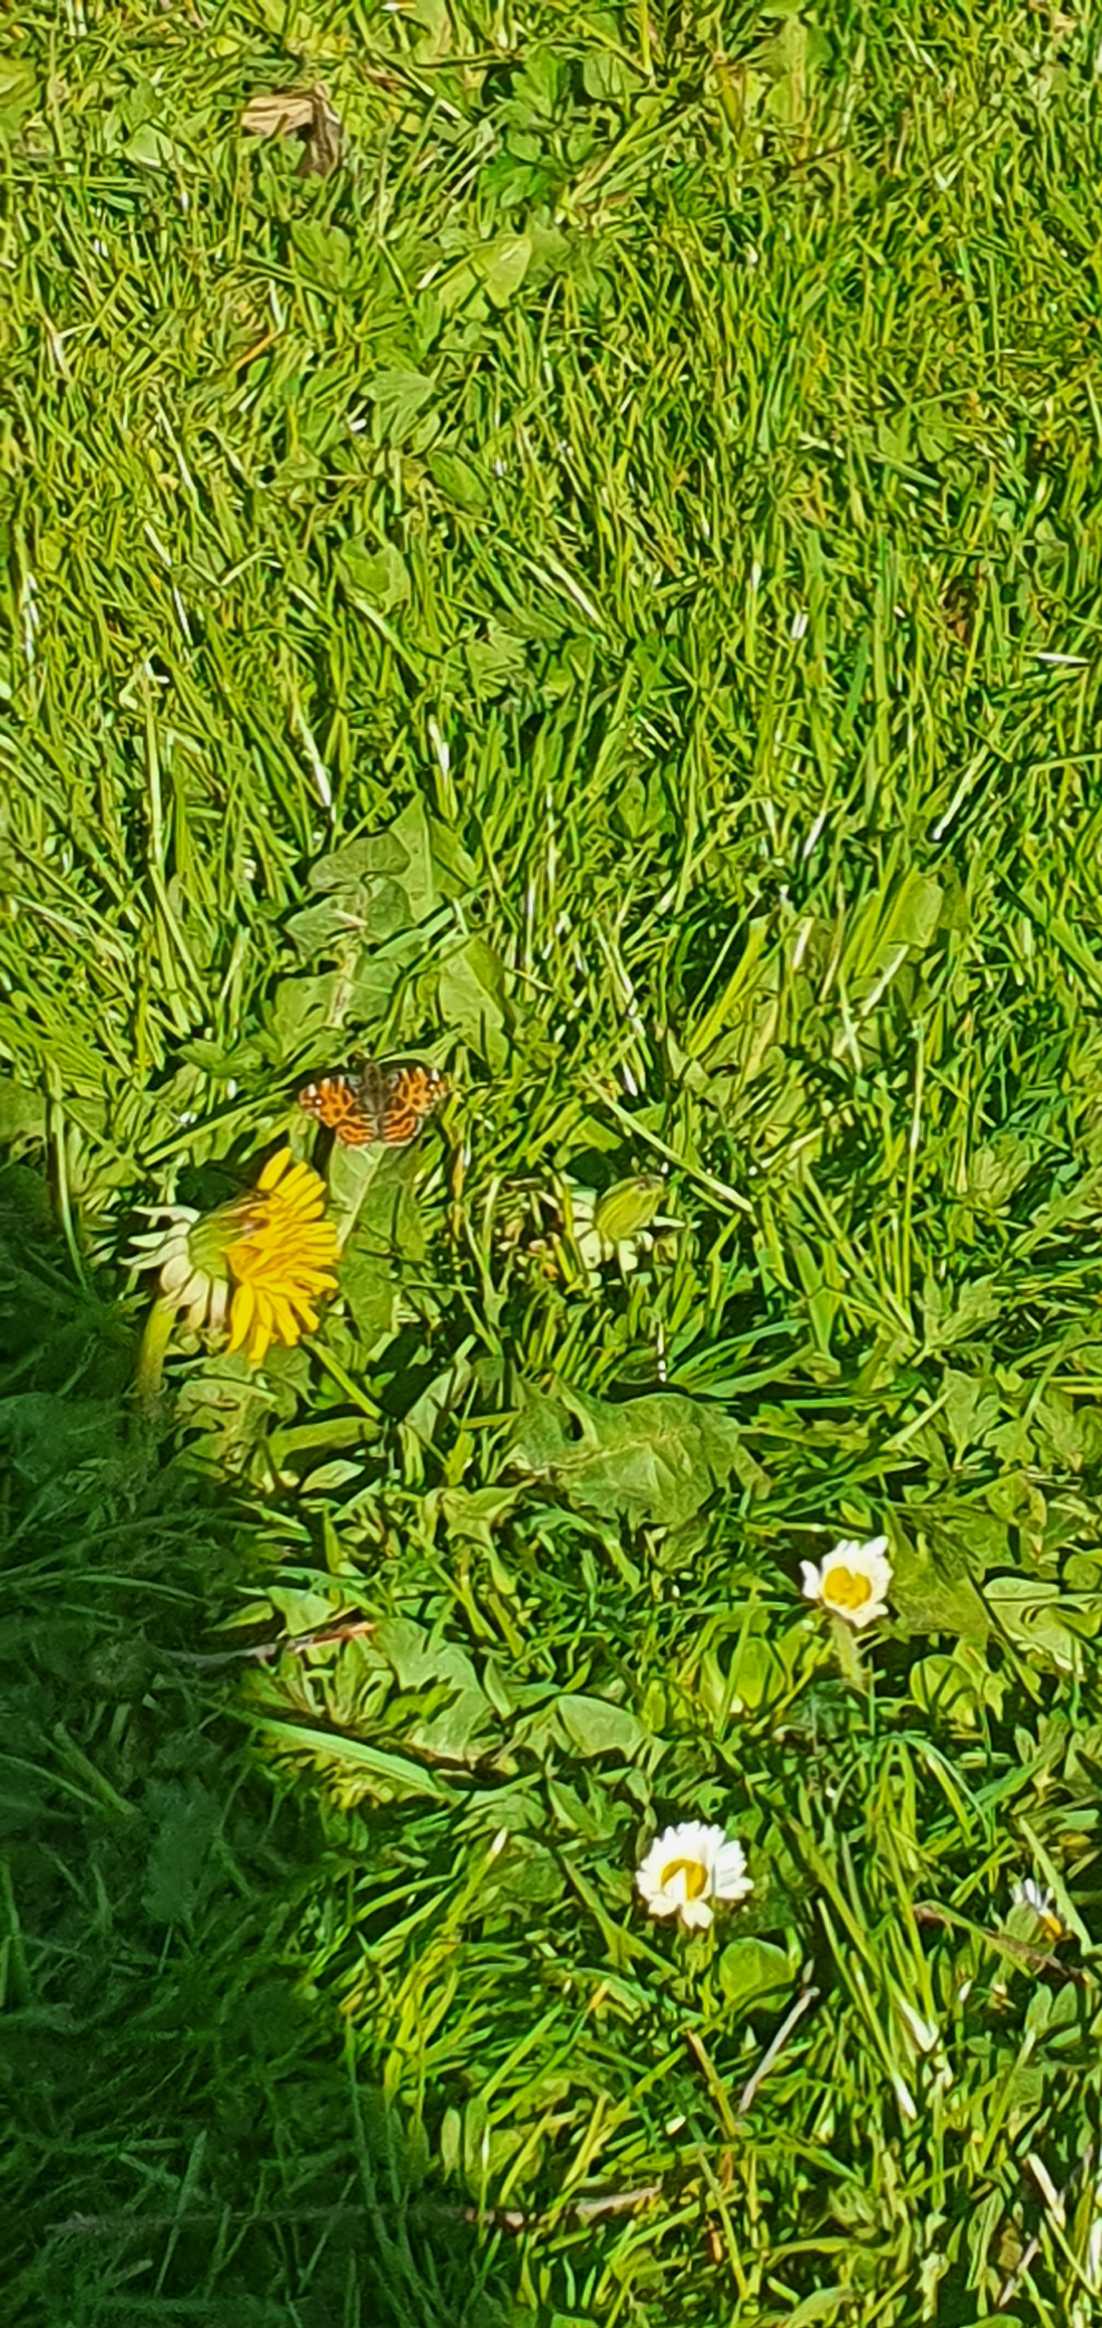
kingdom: Animalia
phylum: Arthropoda
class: Insecta
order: Lepidoptera
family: Nymphalidae
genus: Araschnia
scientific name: Araschnia levana
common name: Nældesommerfugl
